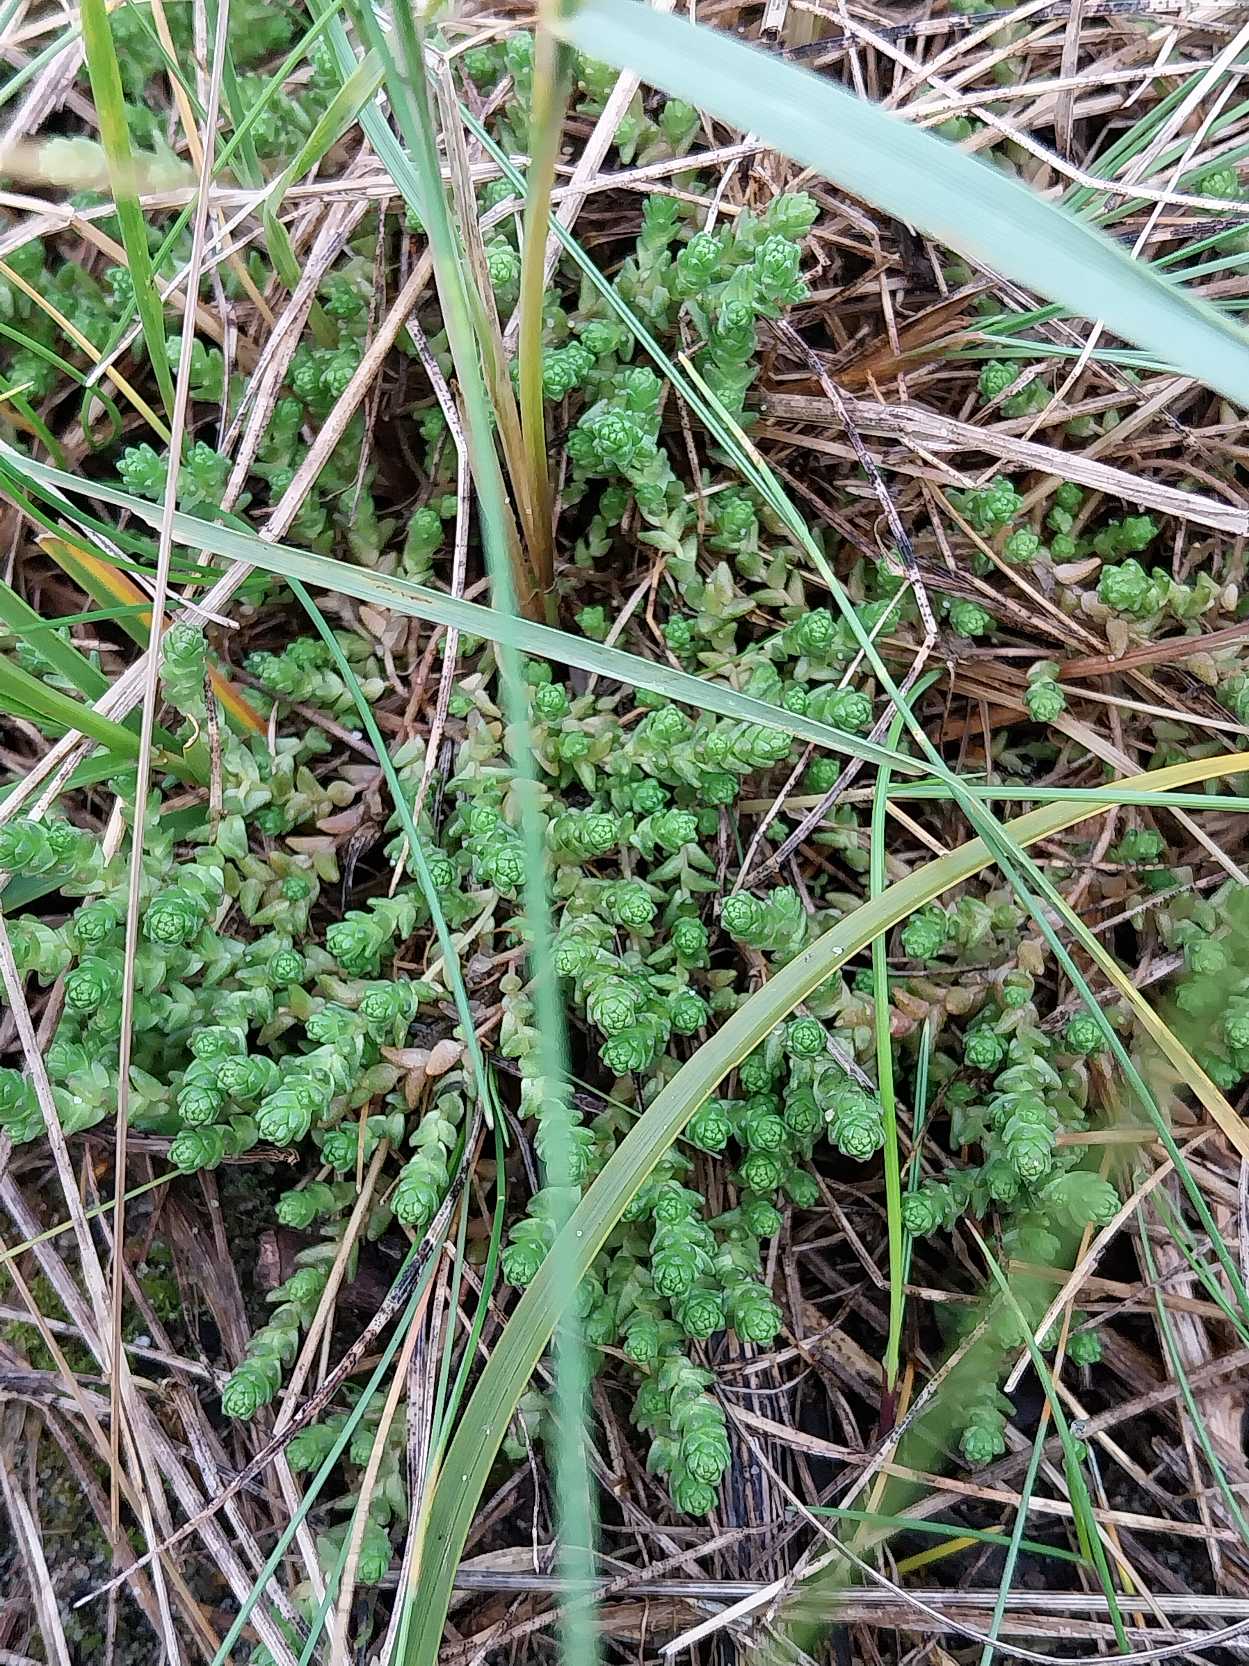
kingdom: Plantae
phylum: Tracheophyta
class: Magnoliopsida
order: Saxifragales
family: Crassulaceae
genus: Sedum
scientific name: Sedum acre
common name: Bidende stenurt
